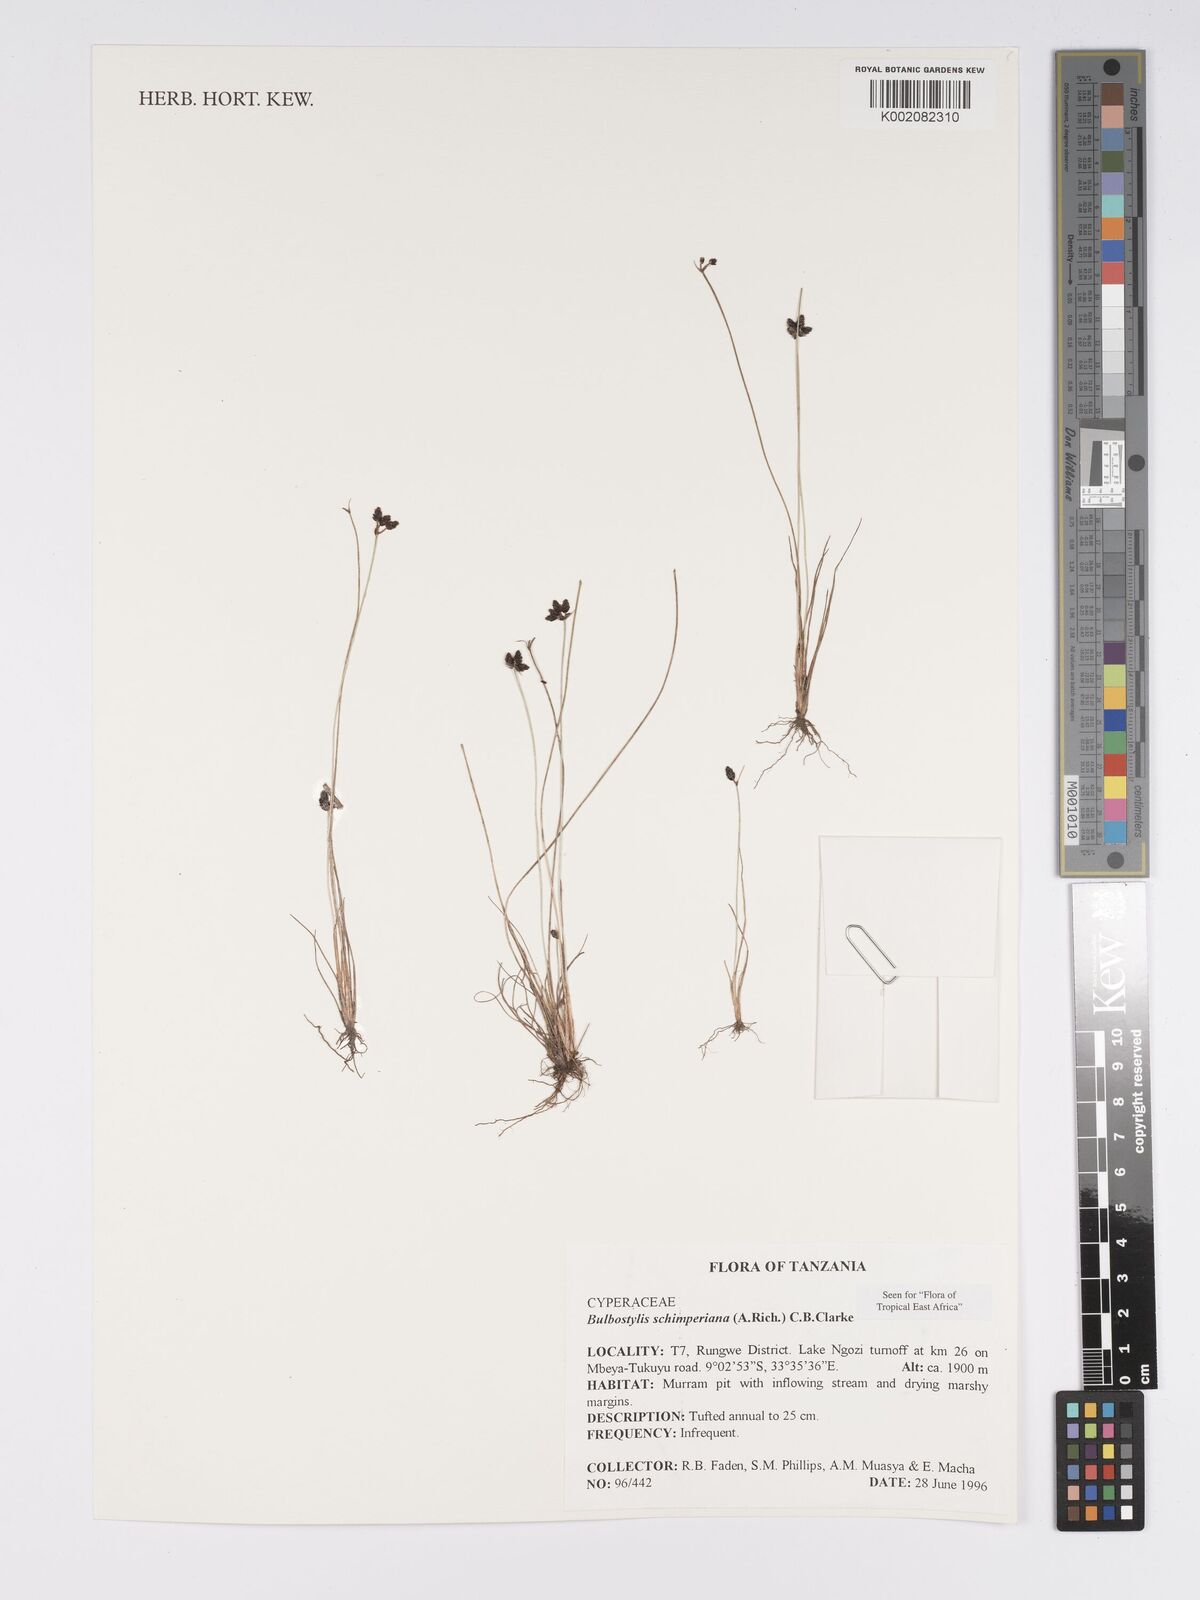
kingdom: Plantae
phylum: Tracheophyta
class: Liliopsida
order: Poales
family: Cyperaceae
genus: Bulbostylis
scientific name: Bulbostylis schimperiana
